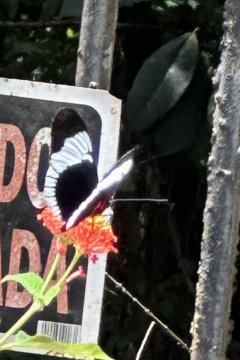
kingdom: Animalia
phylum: Arthropoda
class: Insecta
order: Lepidoptera
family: Nymphalidae
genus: Heliconius
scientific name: Heliconius cydno
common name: Cydno Longwing
